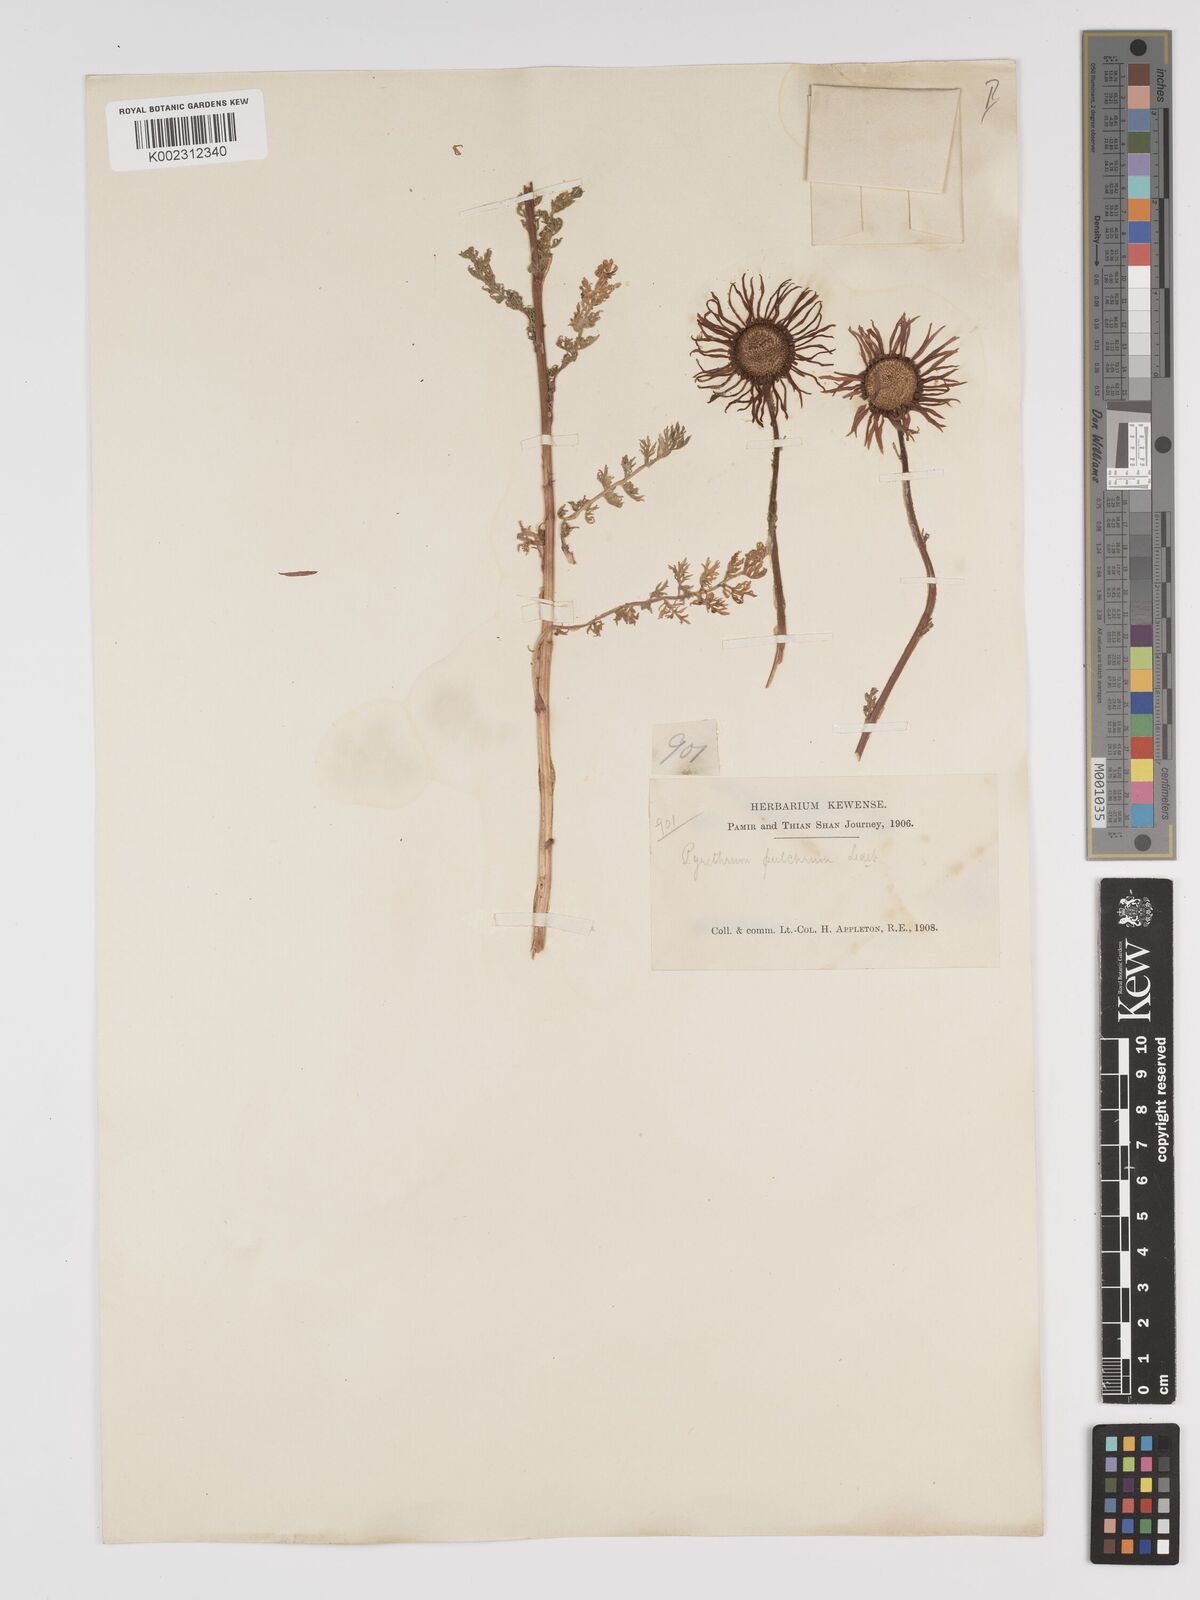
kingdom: Plantae
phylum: Tracheophyta
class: Magnoliopsida
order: Asterales
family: Asteraceae
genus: Tanacetum
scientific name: Tanacetum pulchrum
